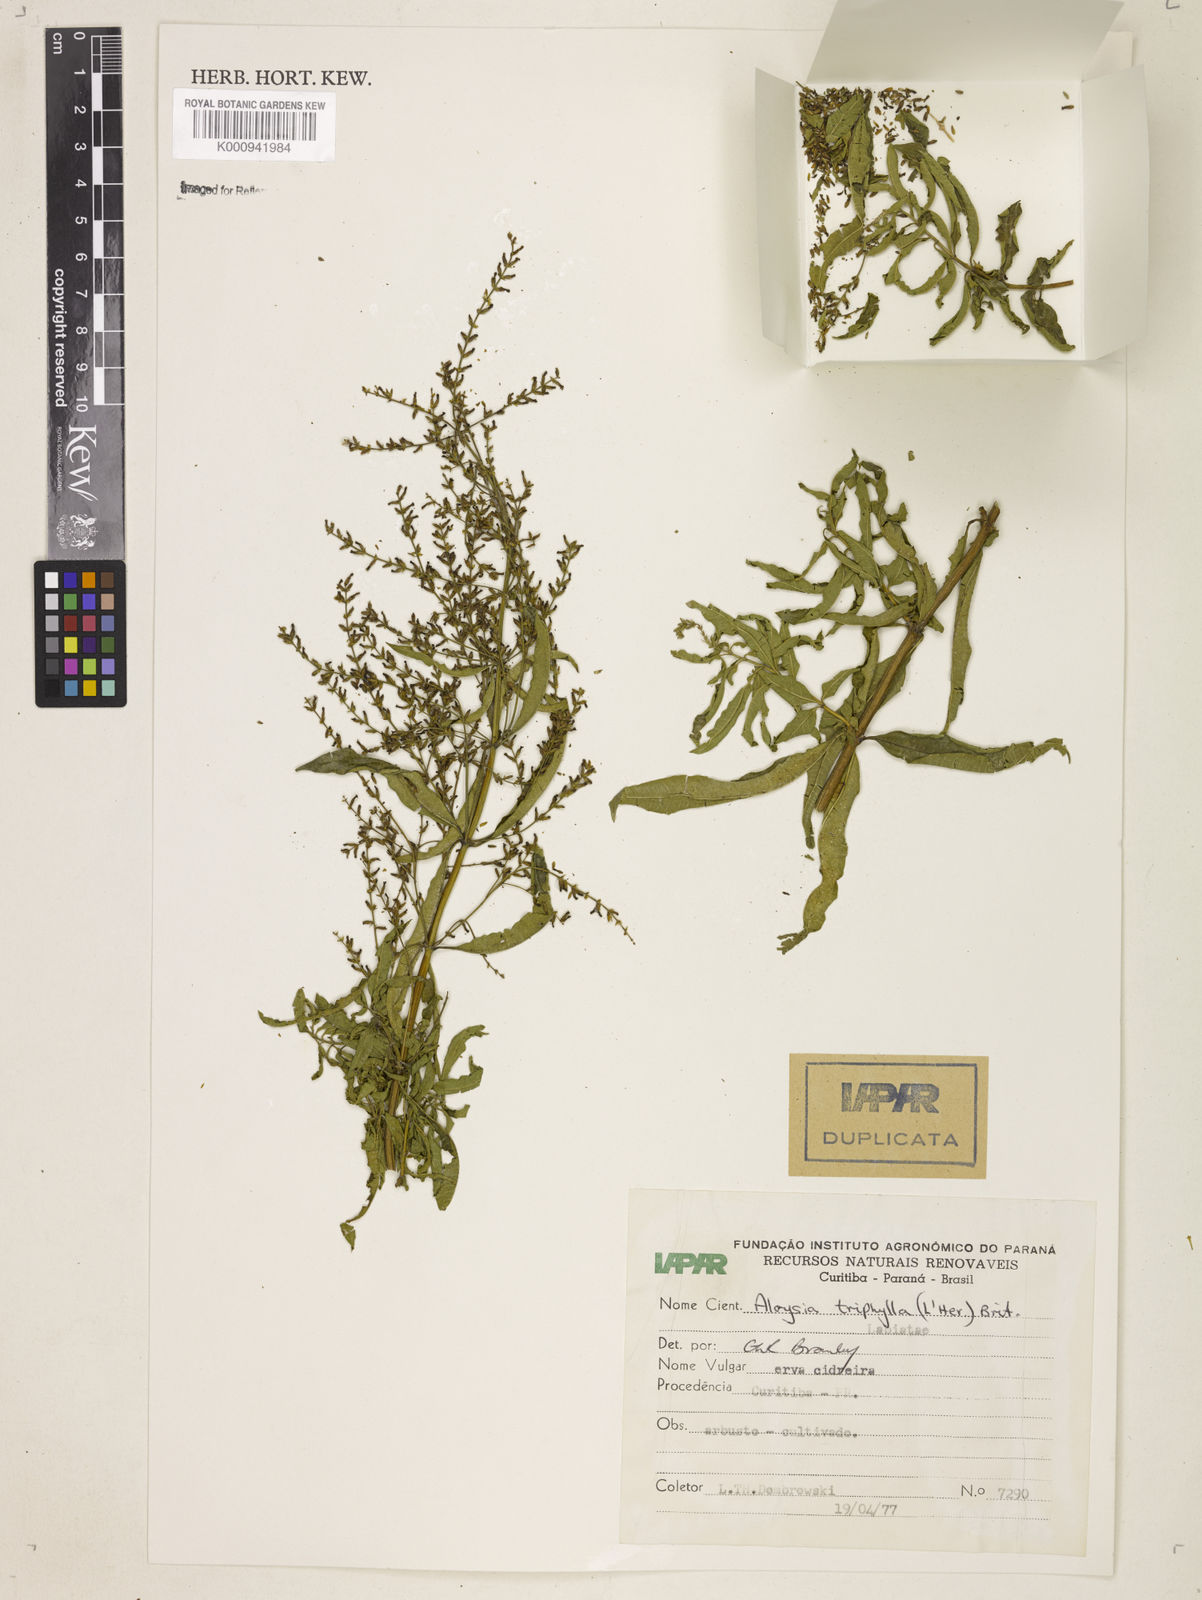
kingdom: Plantae
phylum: Tracheophyta
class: Magnoliopsida
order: Lamiales
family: Verbenaceae
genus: Aloysia
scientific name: Aloysia citrodora
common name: Lemon beebrush
